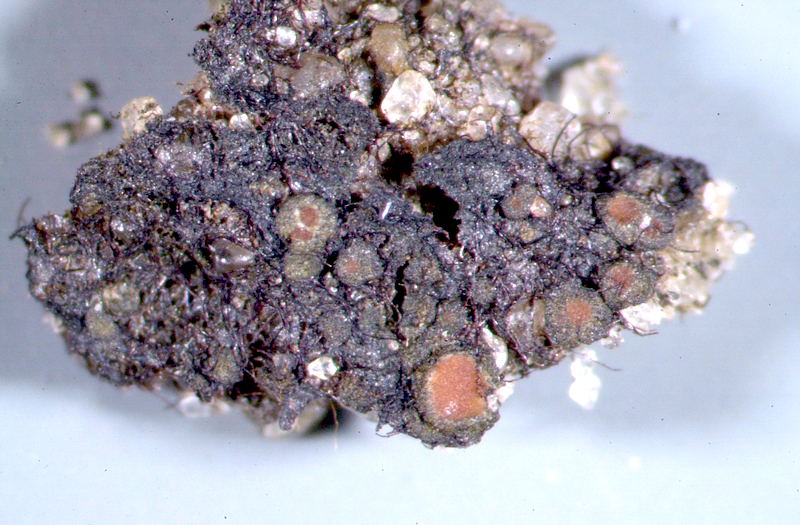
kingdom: Fungi
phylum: Ascomycota
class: Lecanoromycetes
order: Peltigerales
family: Collemataceae
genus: Enchylium
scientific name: Enchylium coccophorum
